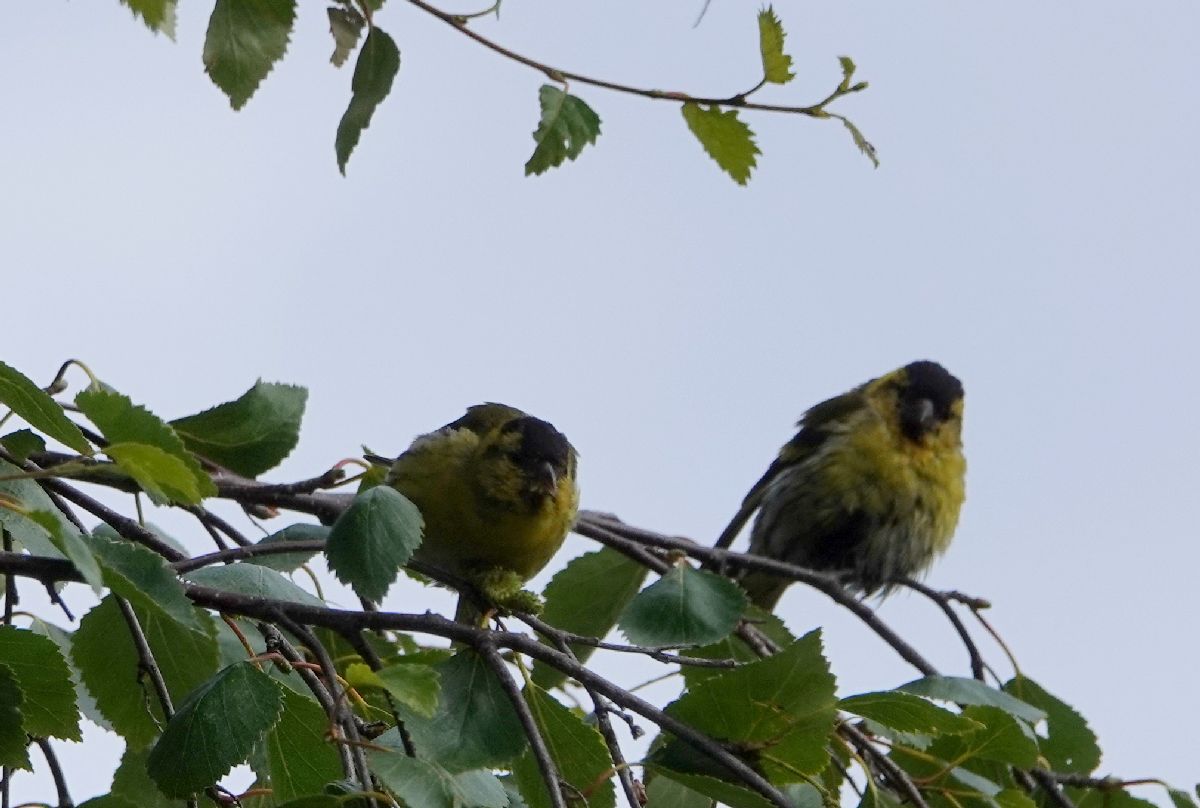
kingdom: Animalia
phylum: Chordata
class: Aves
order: Passeriformes
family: Fringillidae
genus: Spinus
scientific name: Spinus spinus
